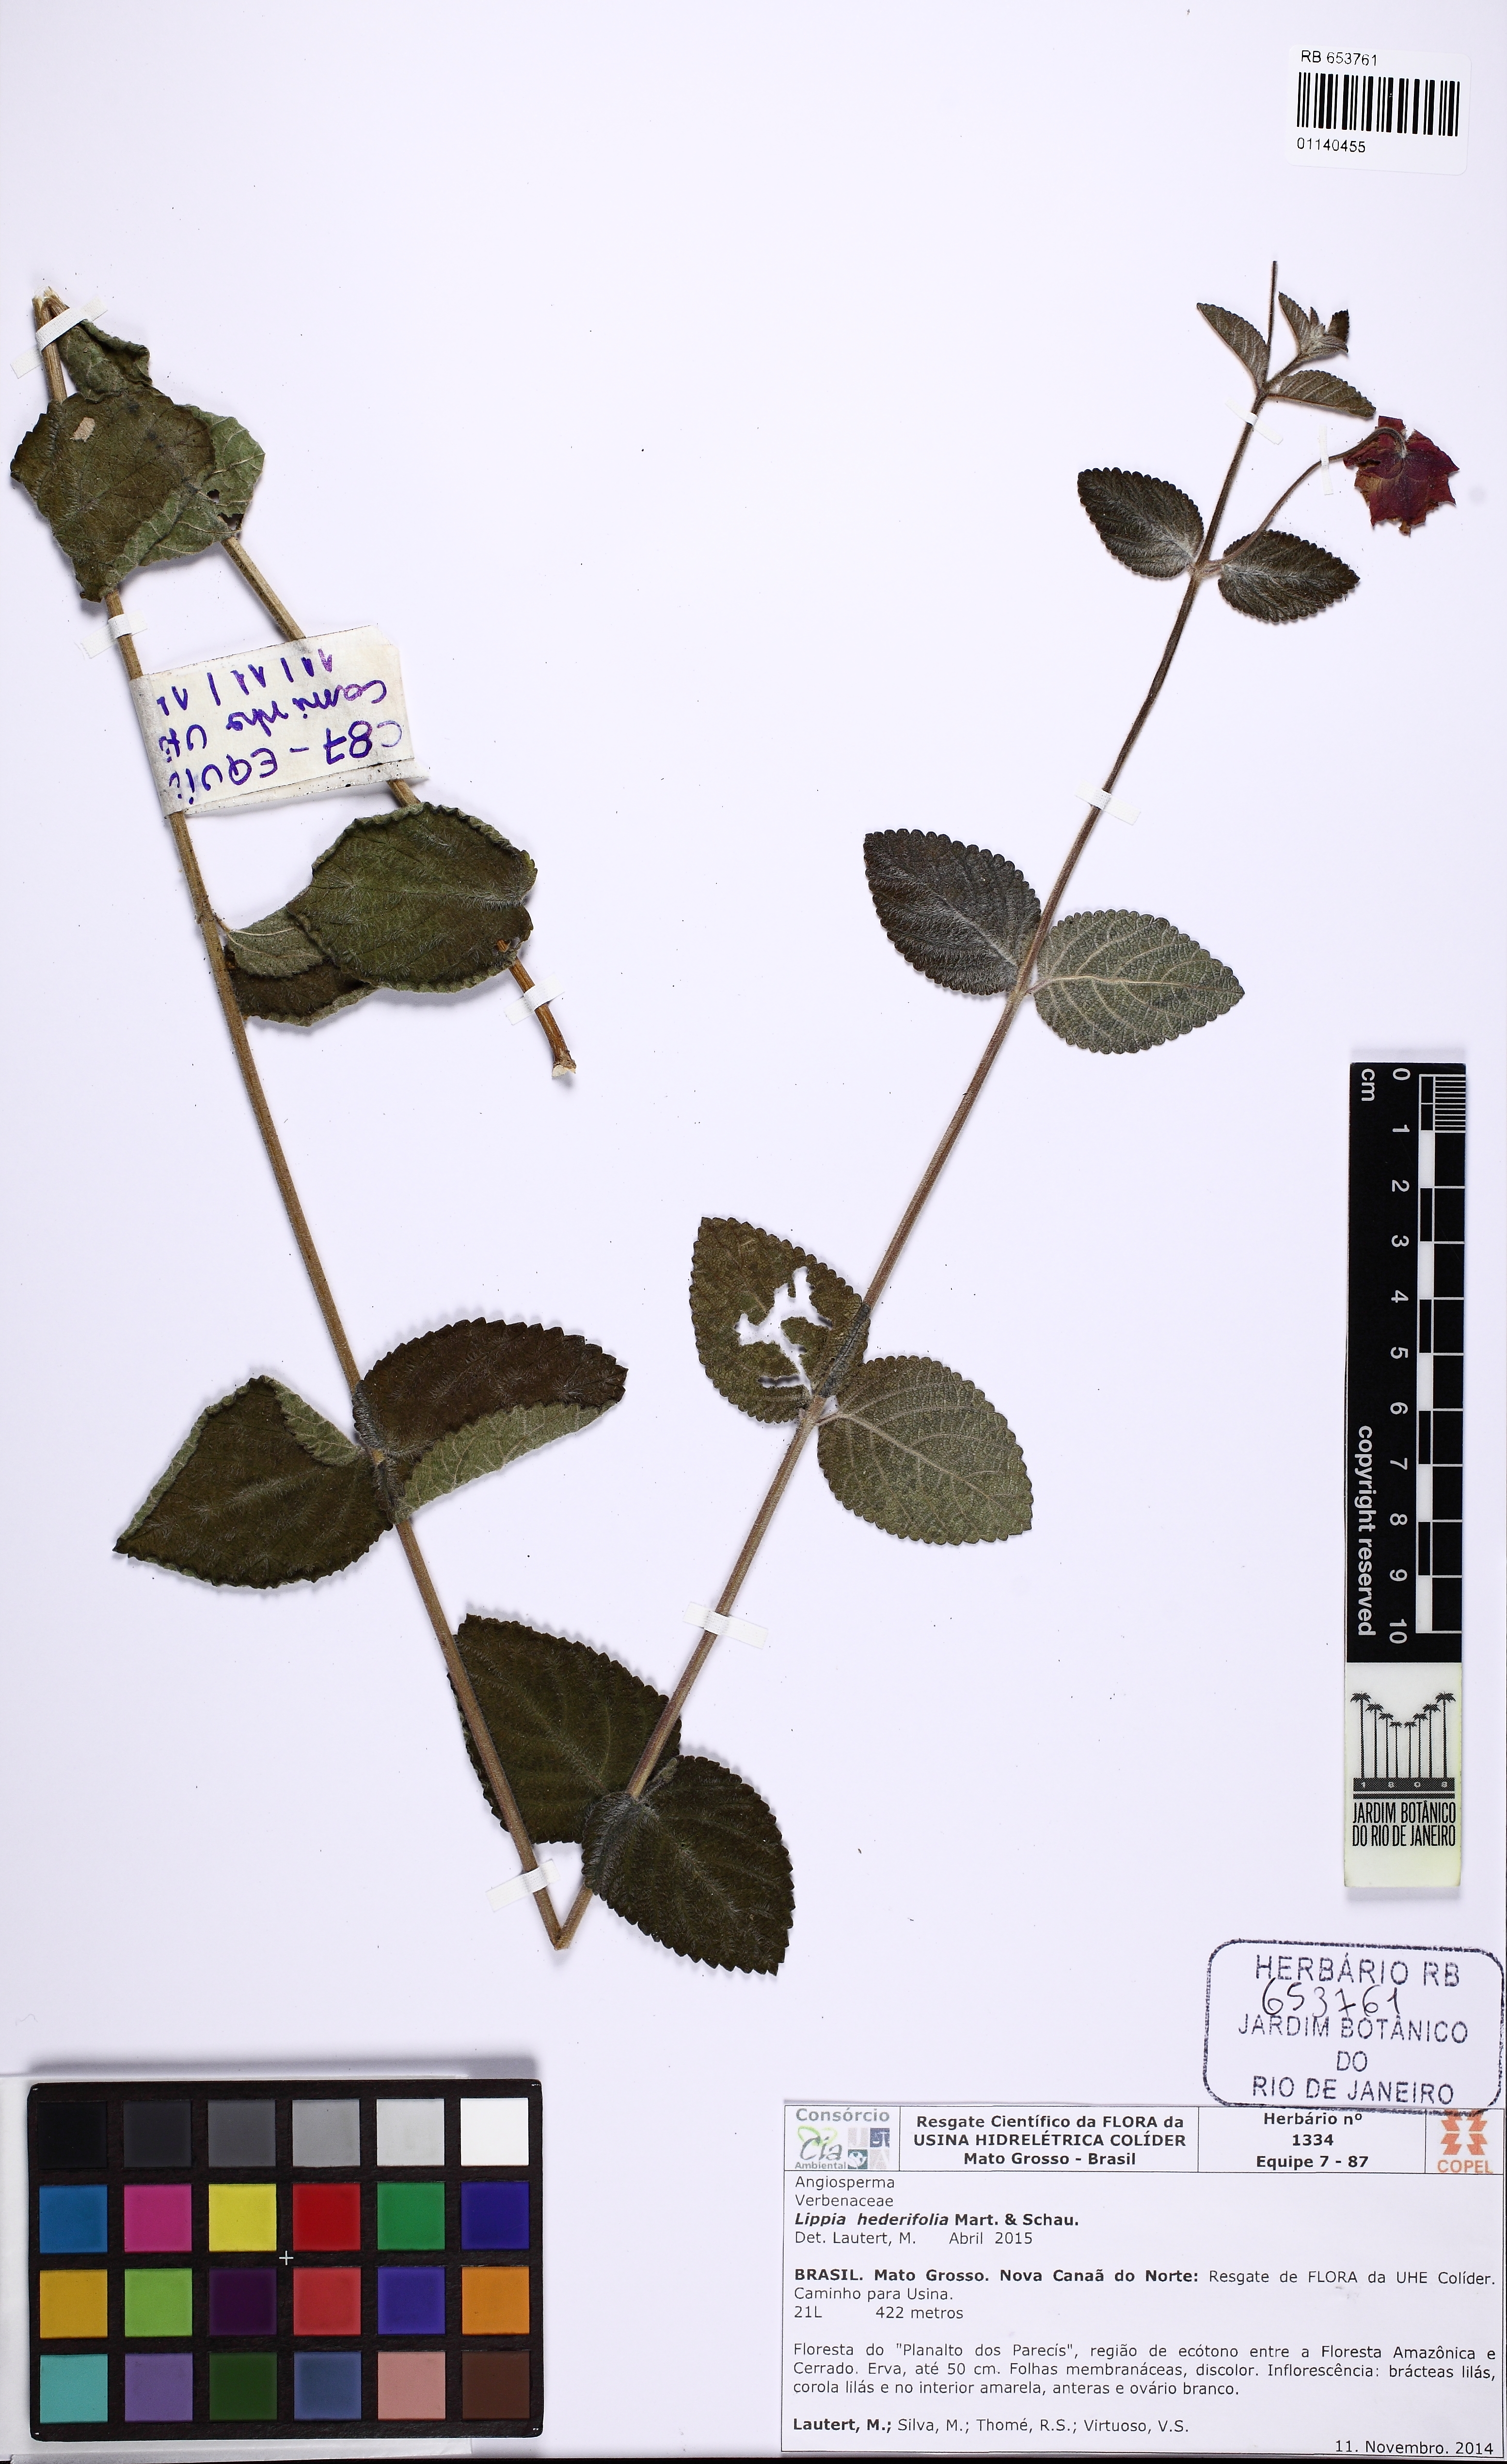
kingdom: Plantae
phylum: Tracheophyta
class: Magnoliopsida
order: Lamiales
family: Verbenaceae
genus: Lippia
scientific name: Lippia hederifolia
